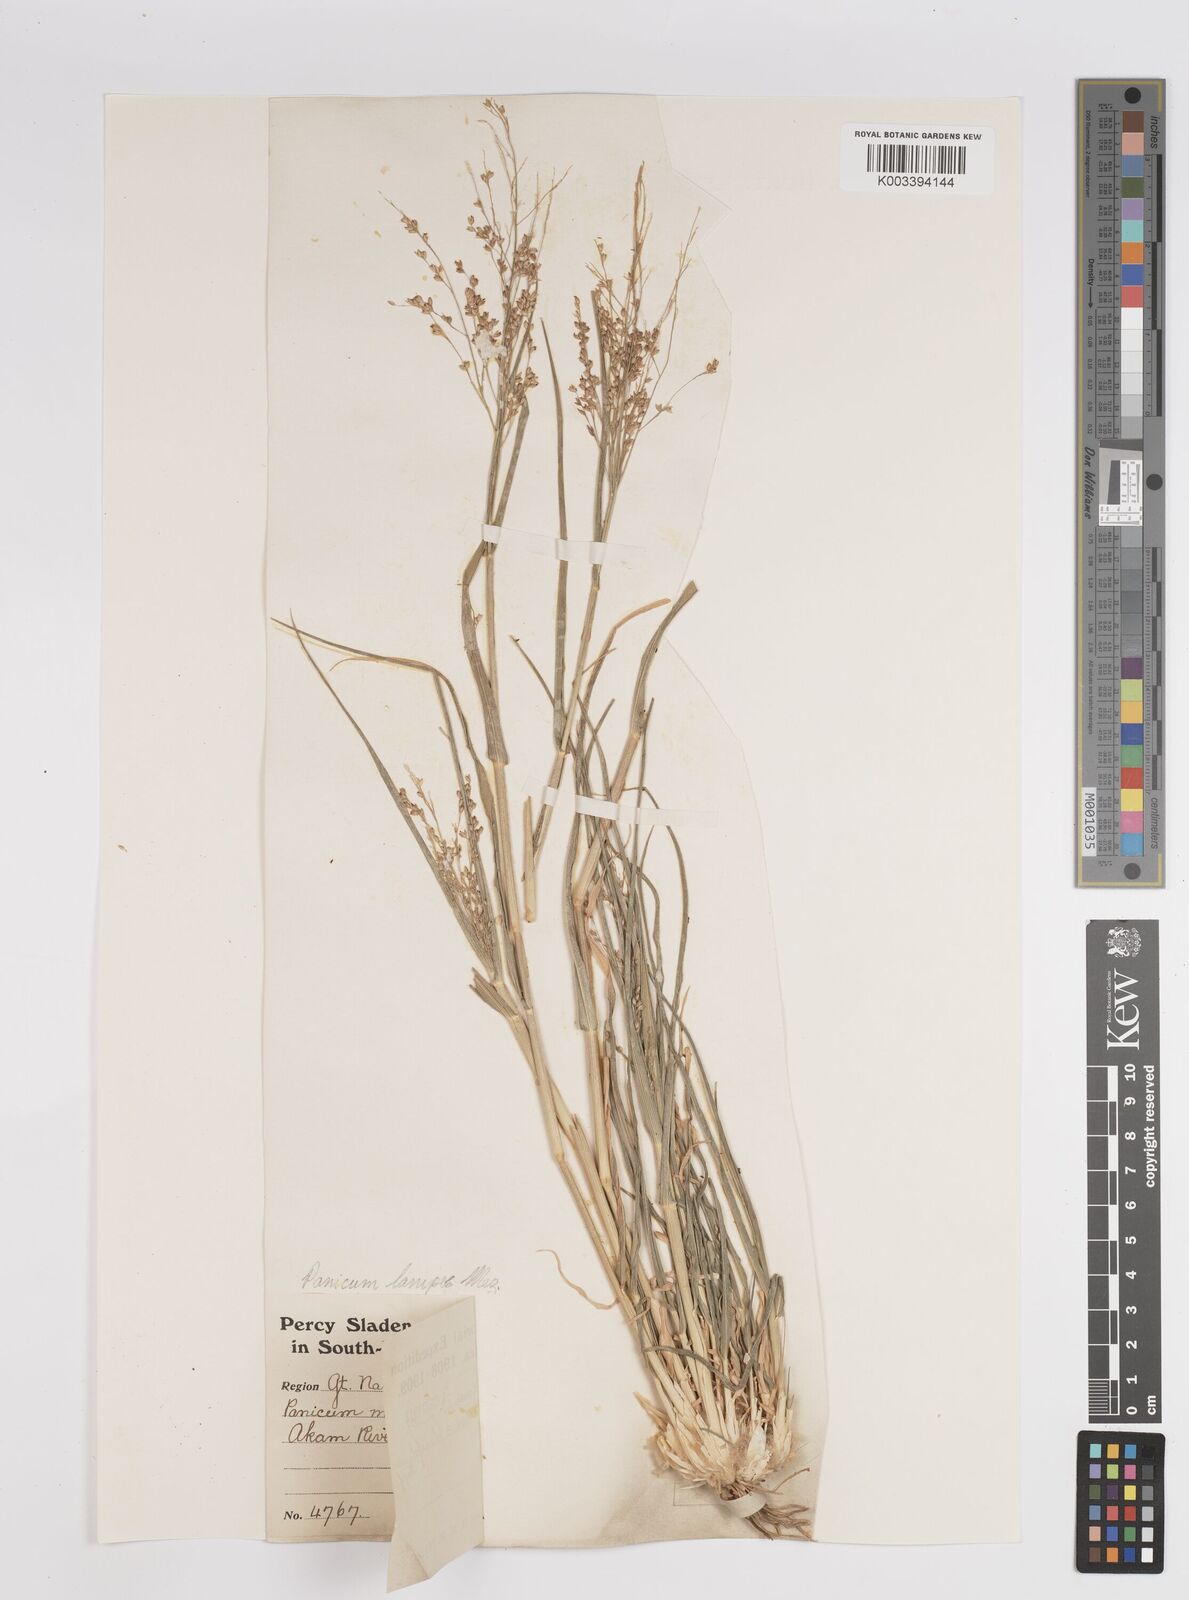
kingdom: Plantae
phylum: Tracheophyta
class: Liliopsida
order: Poales
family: Poaceae
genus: Panicum
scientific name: Panicum lanipes
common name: Wolvoet panicum
